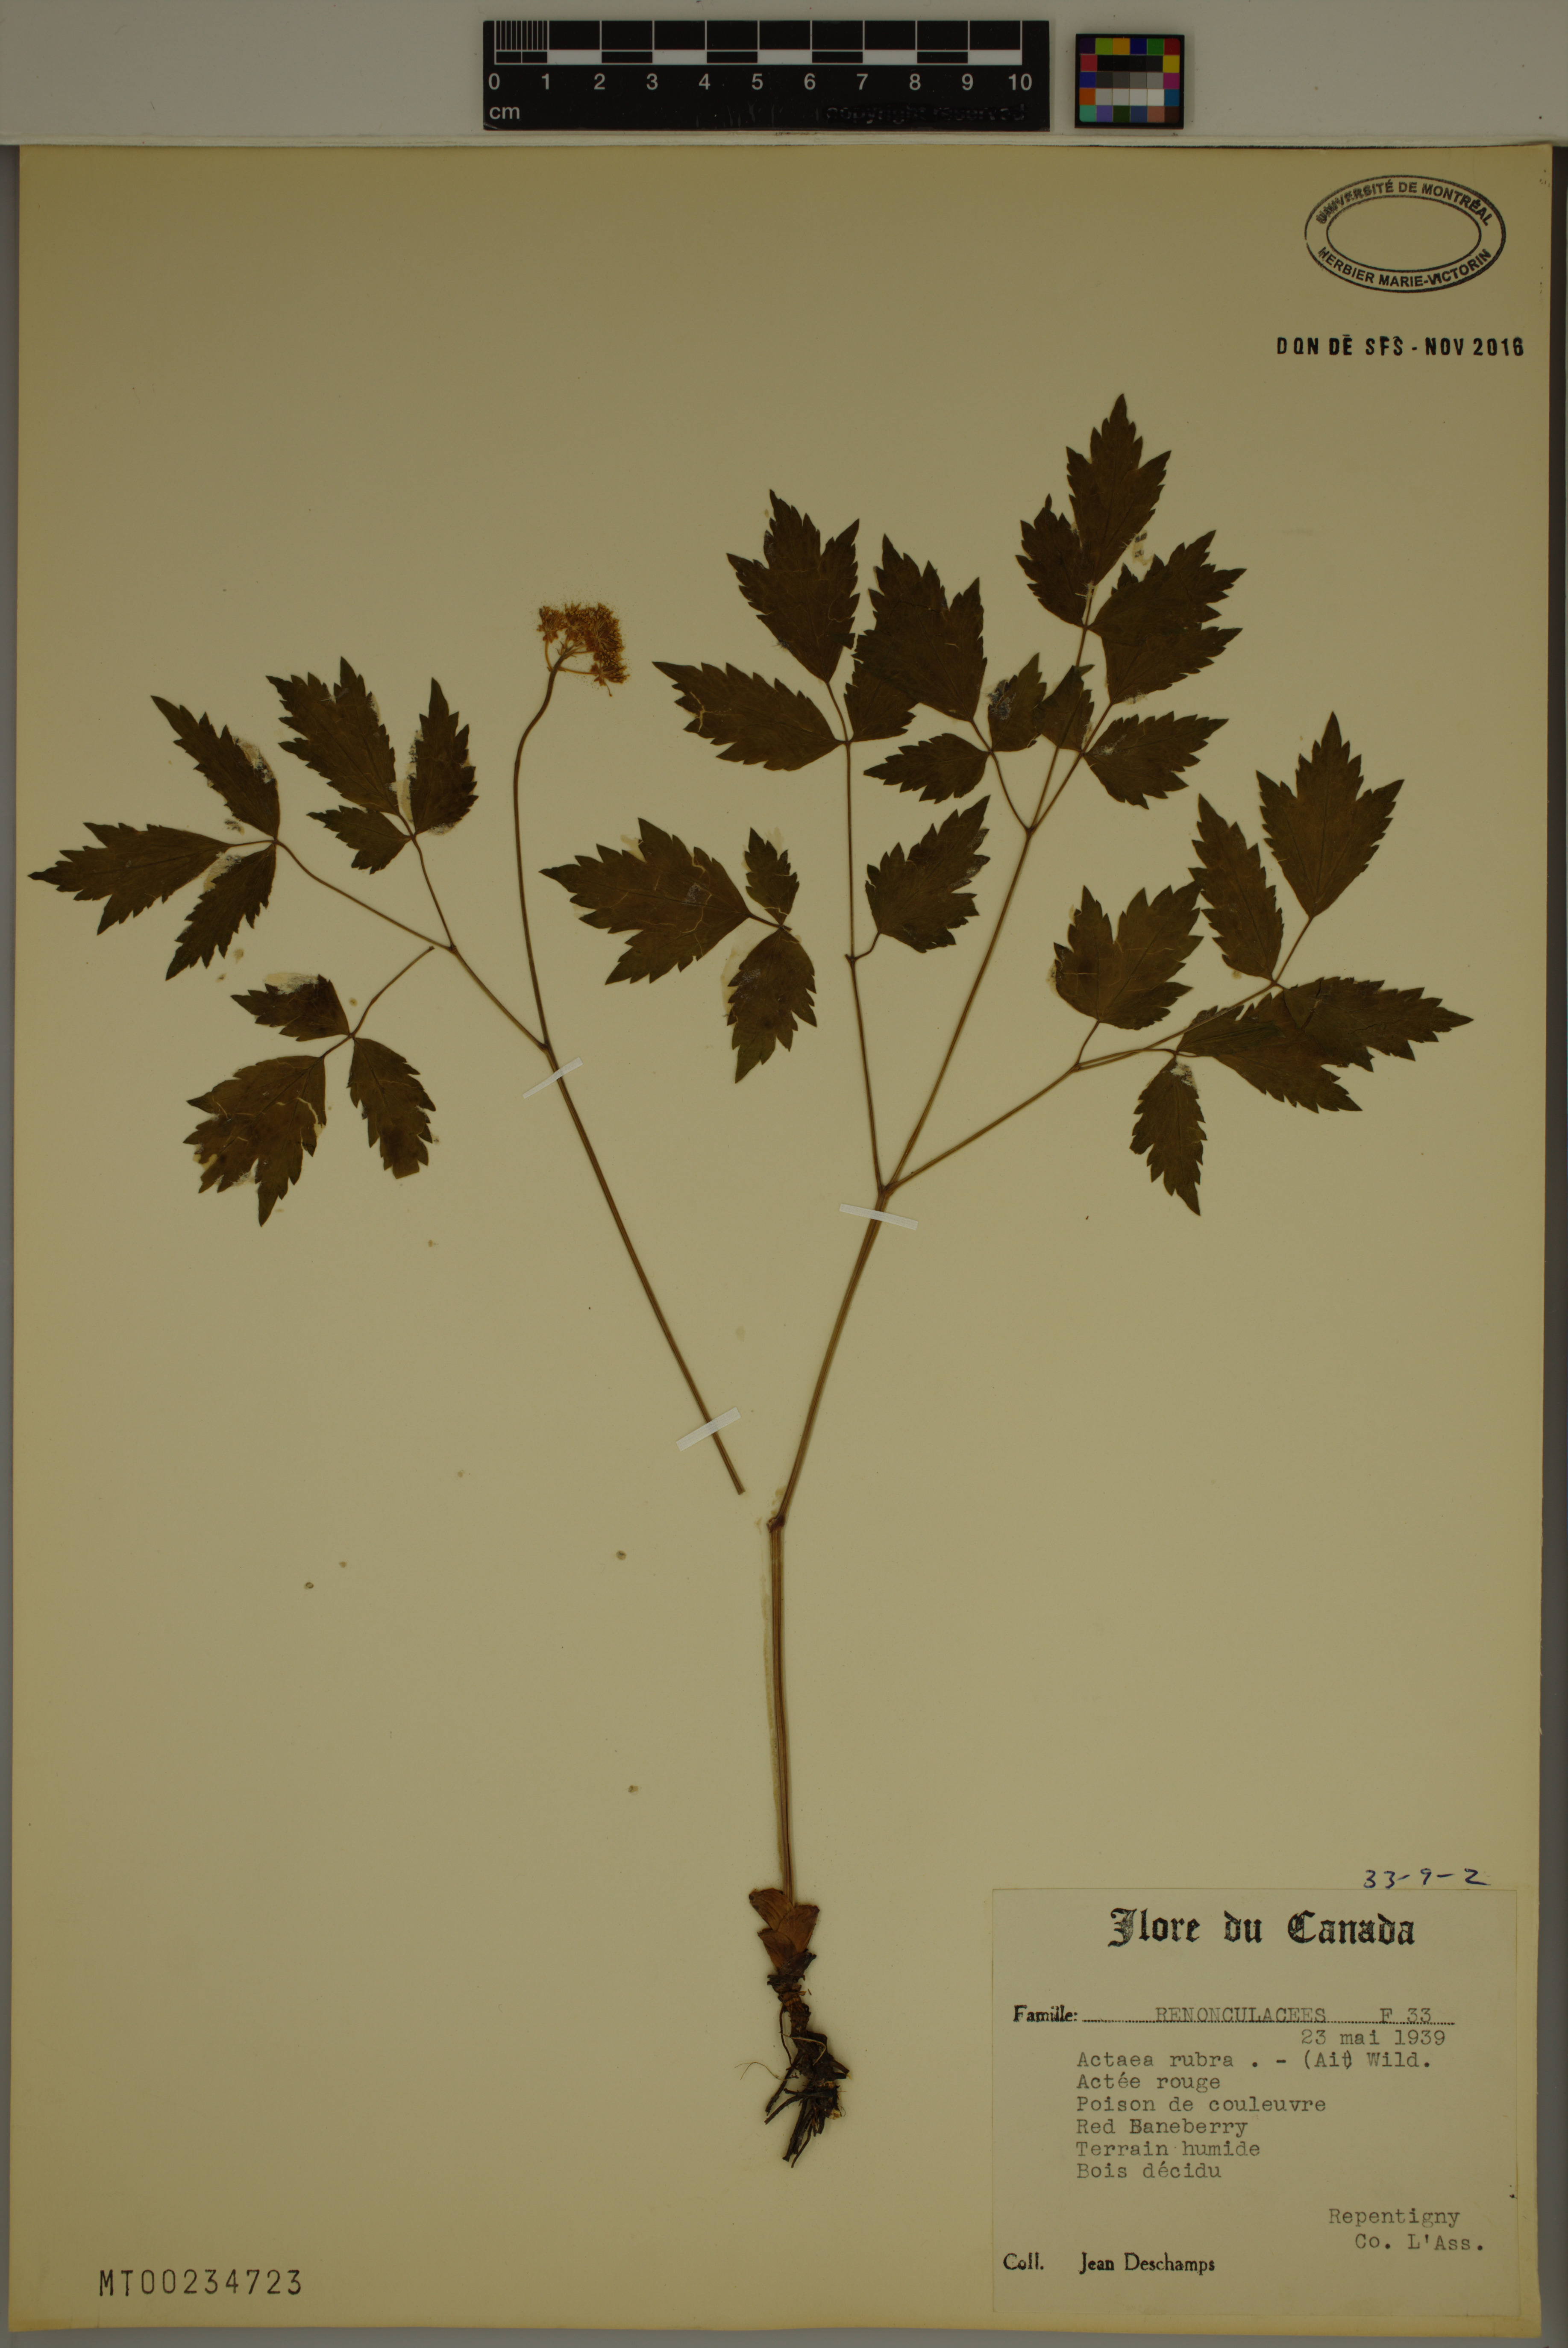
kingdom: Plantae
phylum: Tracheophyta
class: Magnoliopsida
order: Ranunculales
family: Ranunculaceae
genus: Actaea
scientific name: Actaea rubra
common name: Red baneberry
